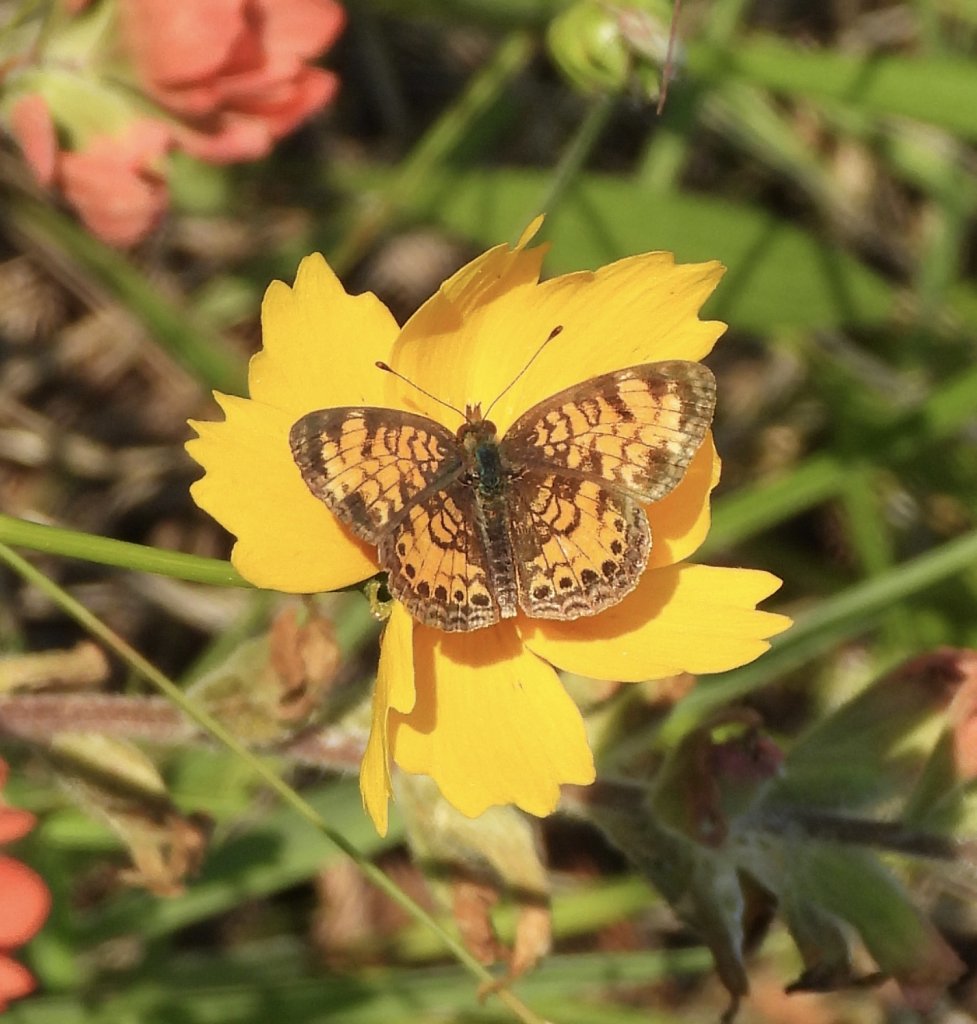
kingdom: Animalia
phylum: Arthropoda
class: Insecta
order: Lepidoptera
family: Nymphalidae
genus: Phyciodes
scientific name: Phyciodes tharos
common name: Pearl Crescent
